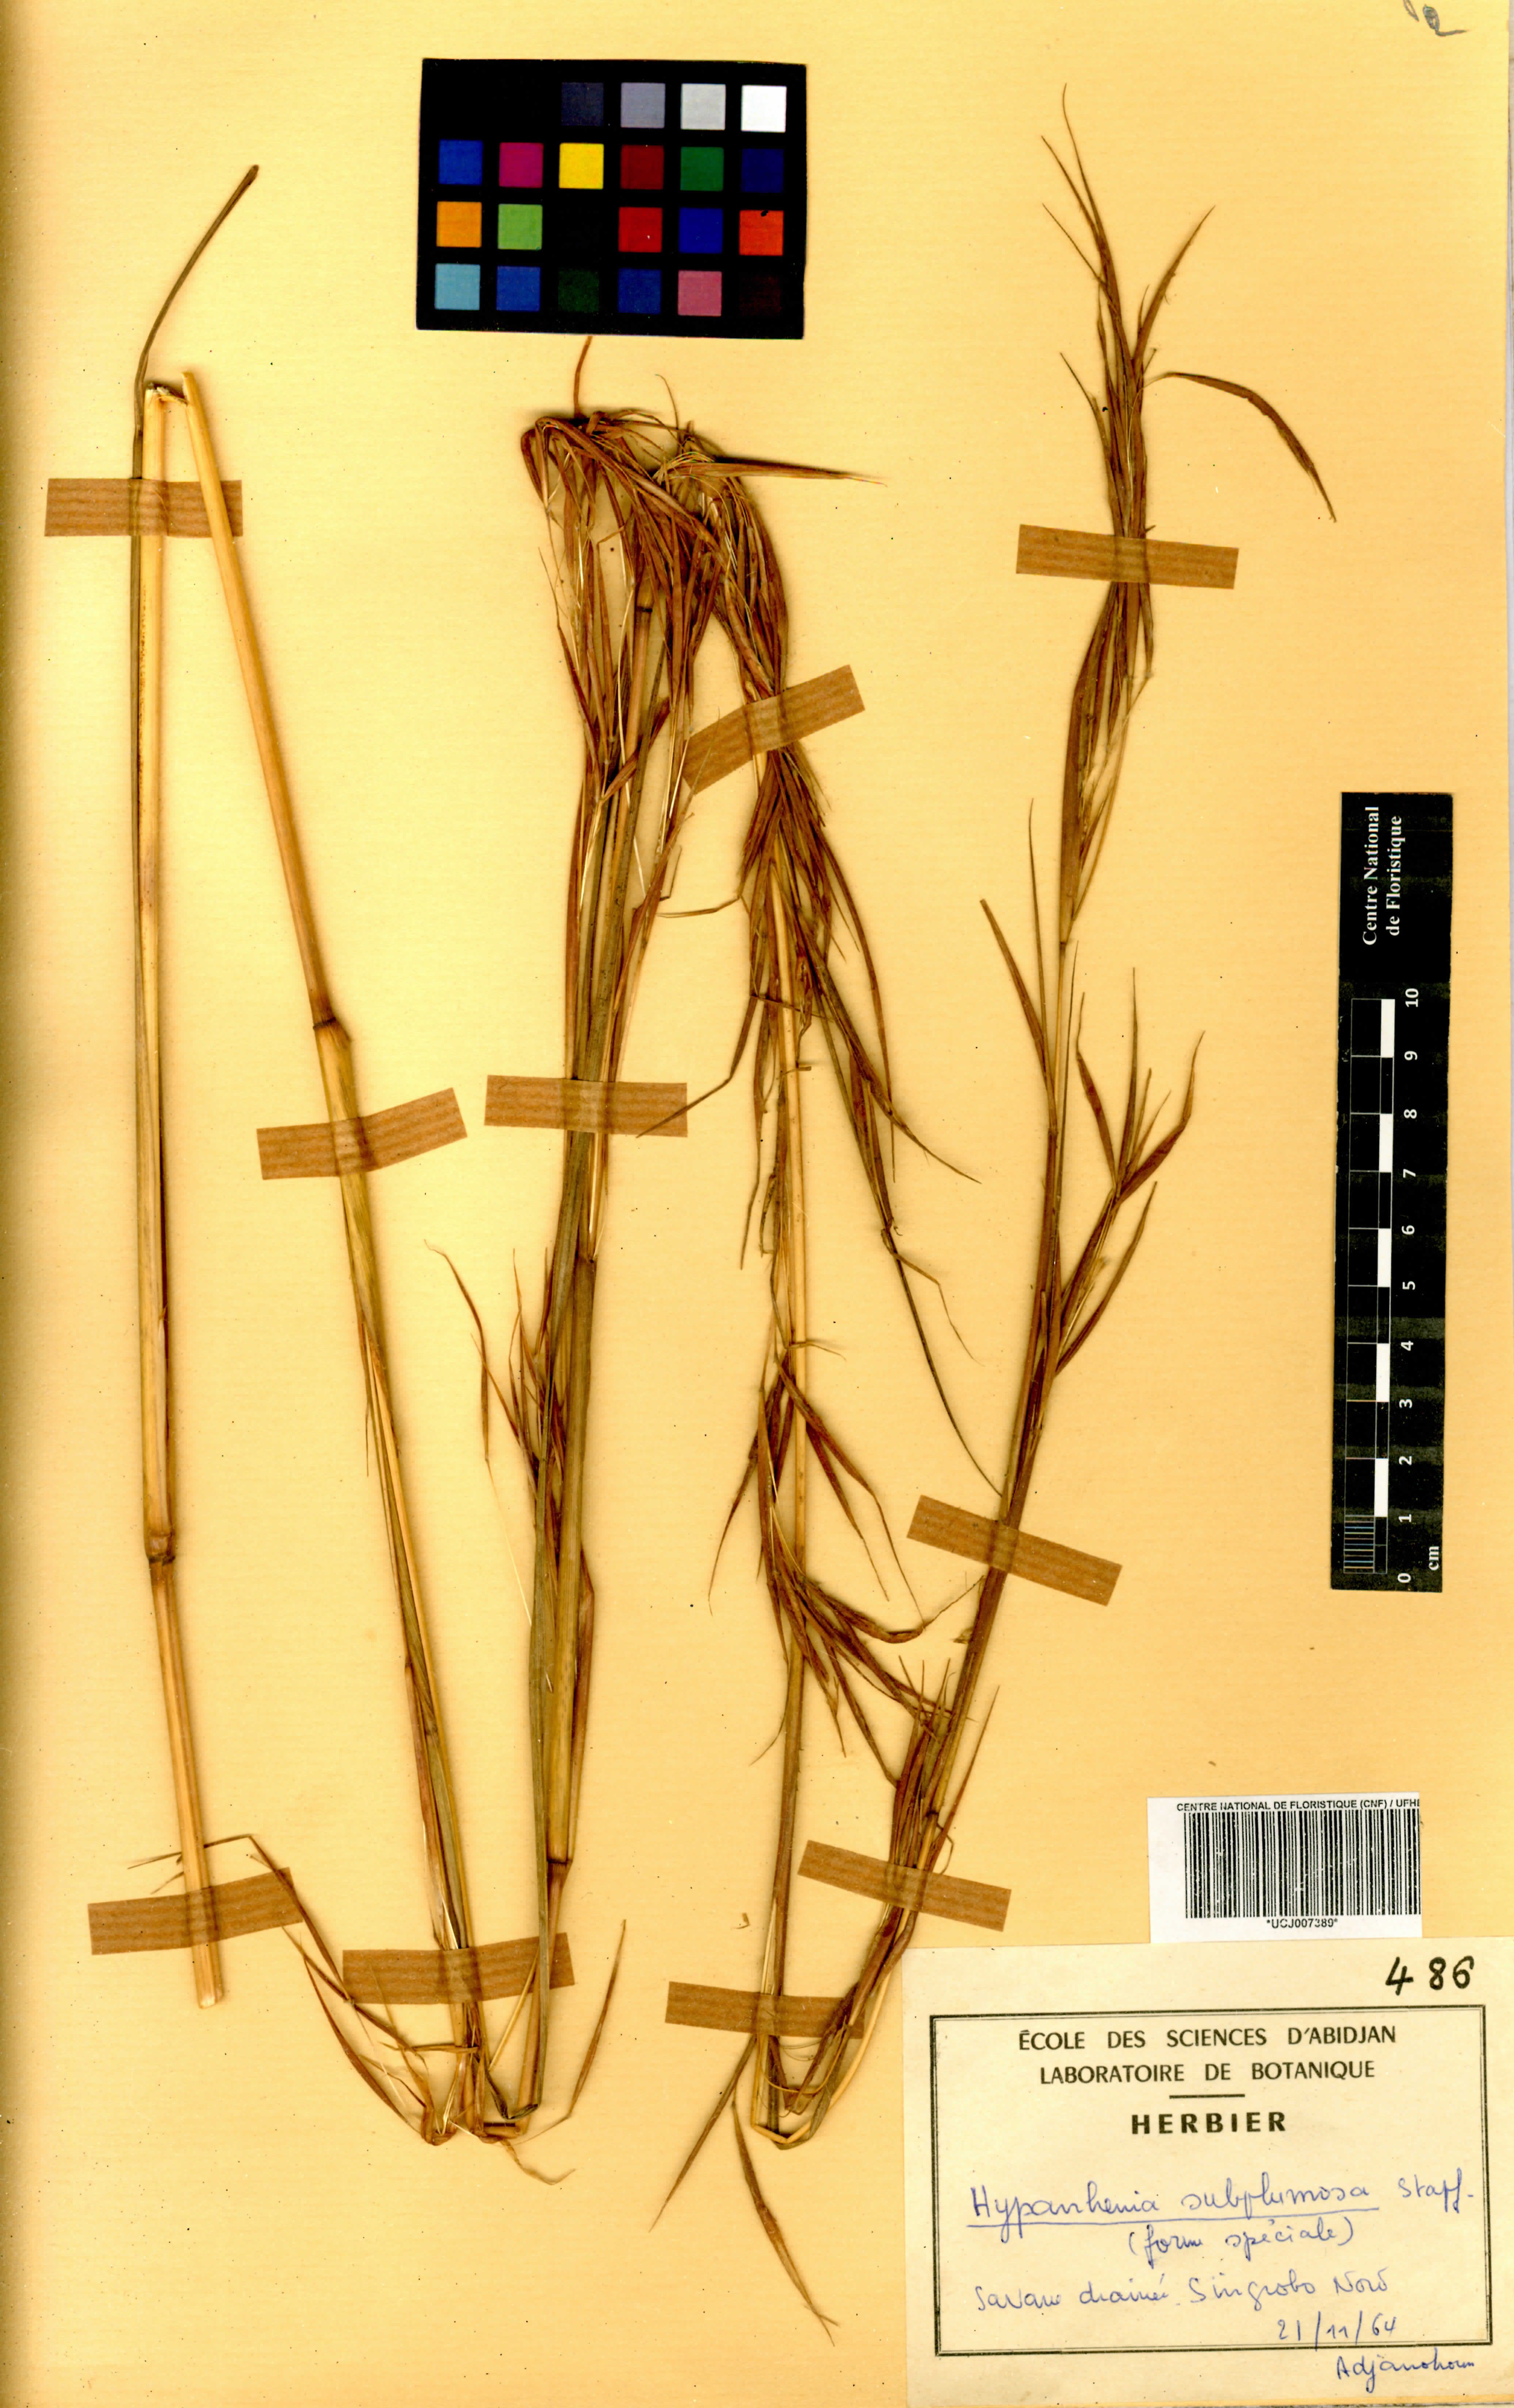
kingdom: Plantae
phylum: Tracheophyta
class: Liliopsida
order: Poales
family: Poaceae
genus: Hyparrhenia
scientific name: Hyparrhenia subplumosa
